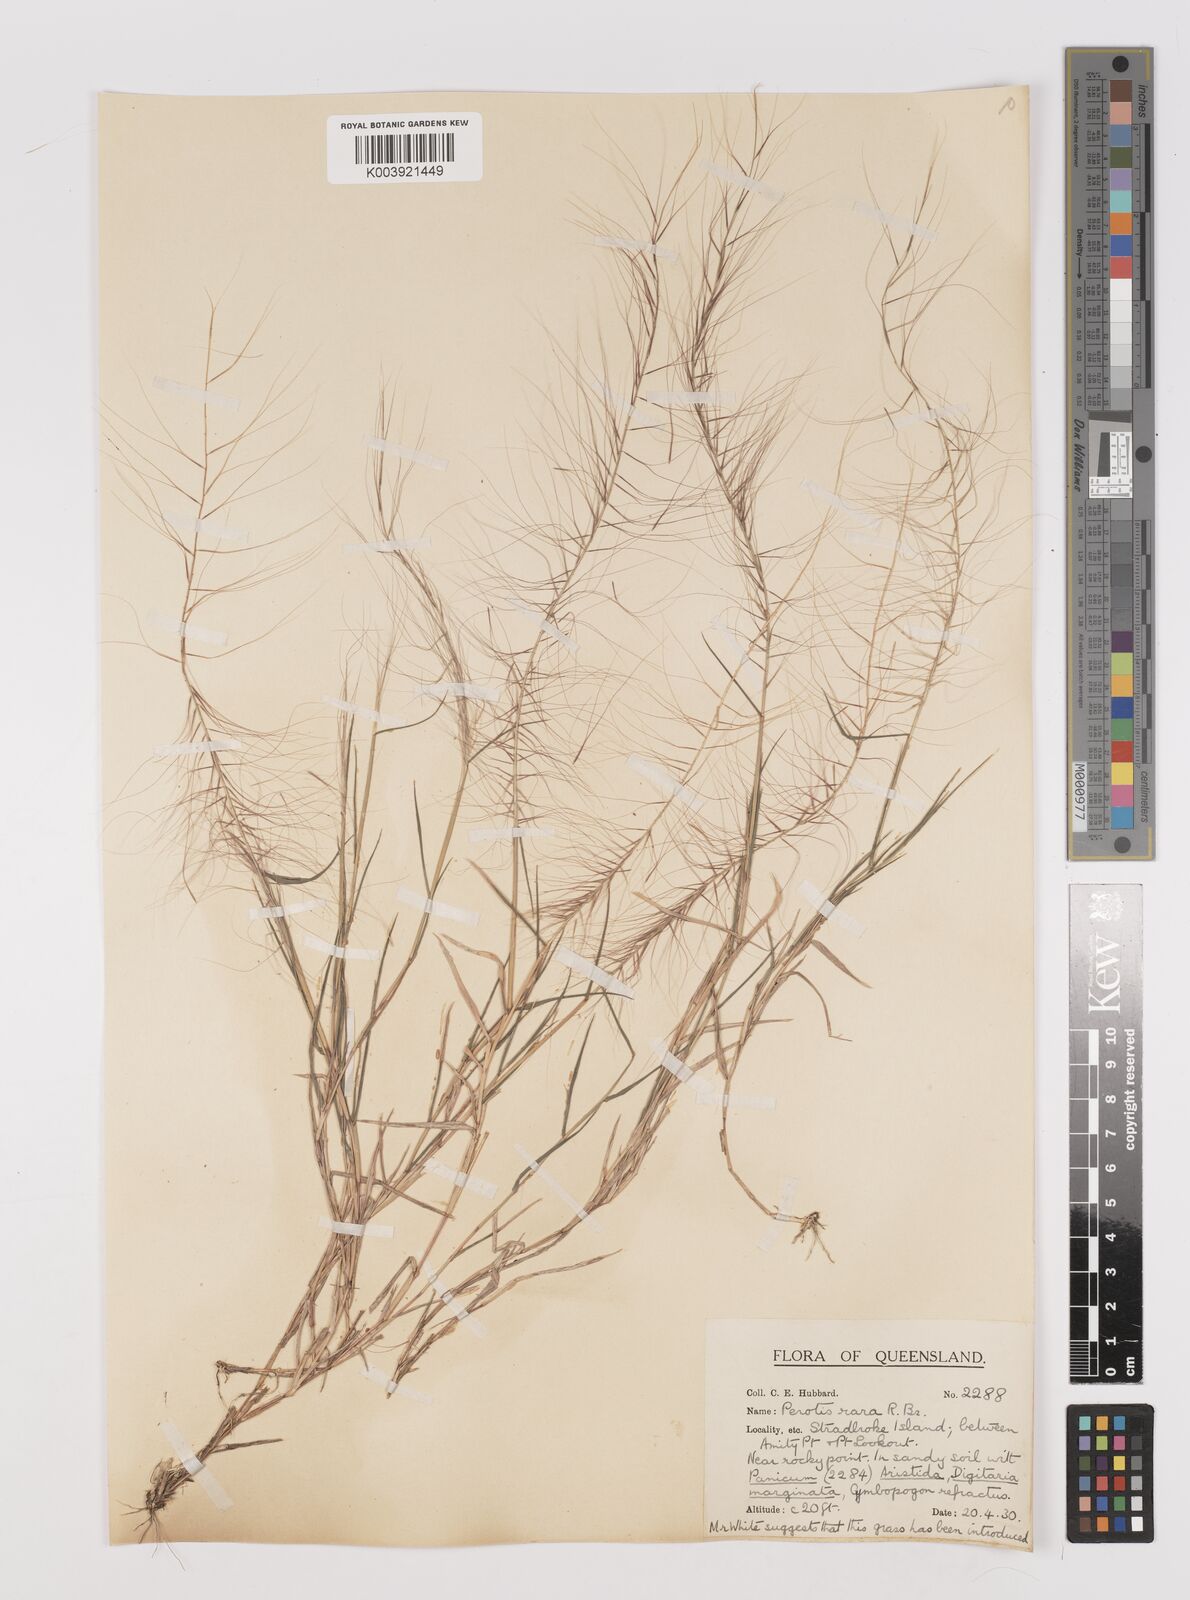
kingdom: Plantae
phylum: Tracheophyta
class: Liliopsida
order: Poales
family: Poaceae
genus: Perotis
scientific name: Perotis rara
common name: Comet grass
